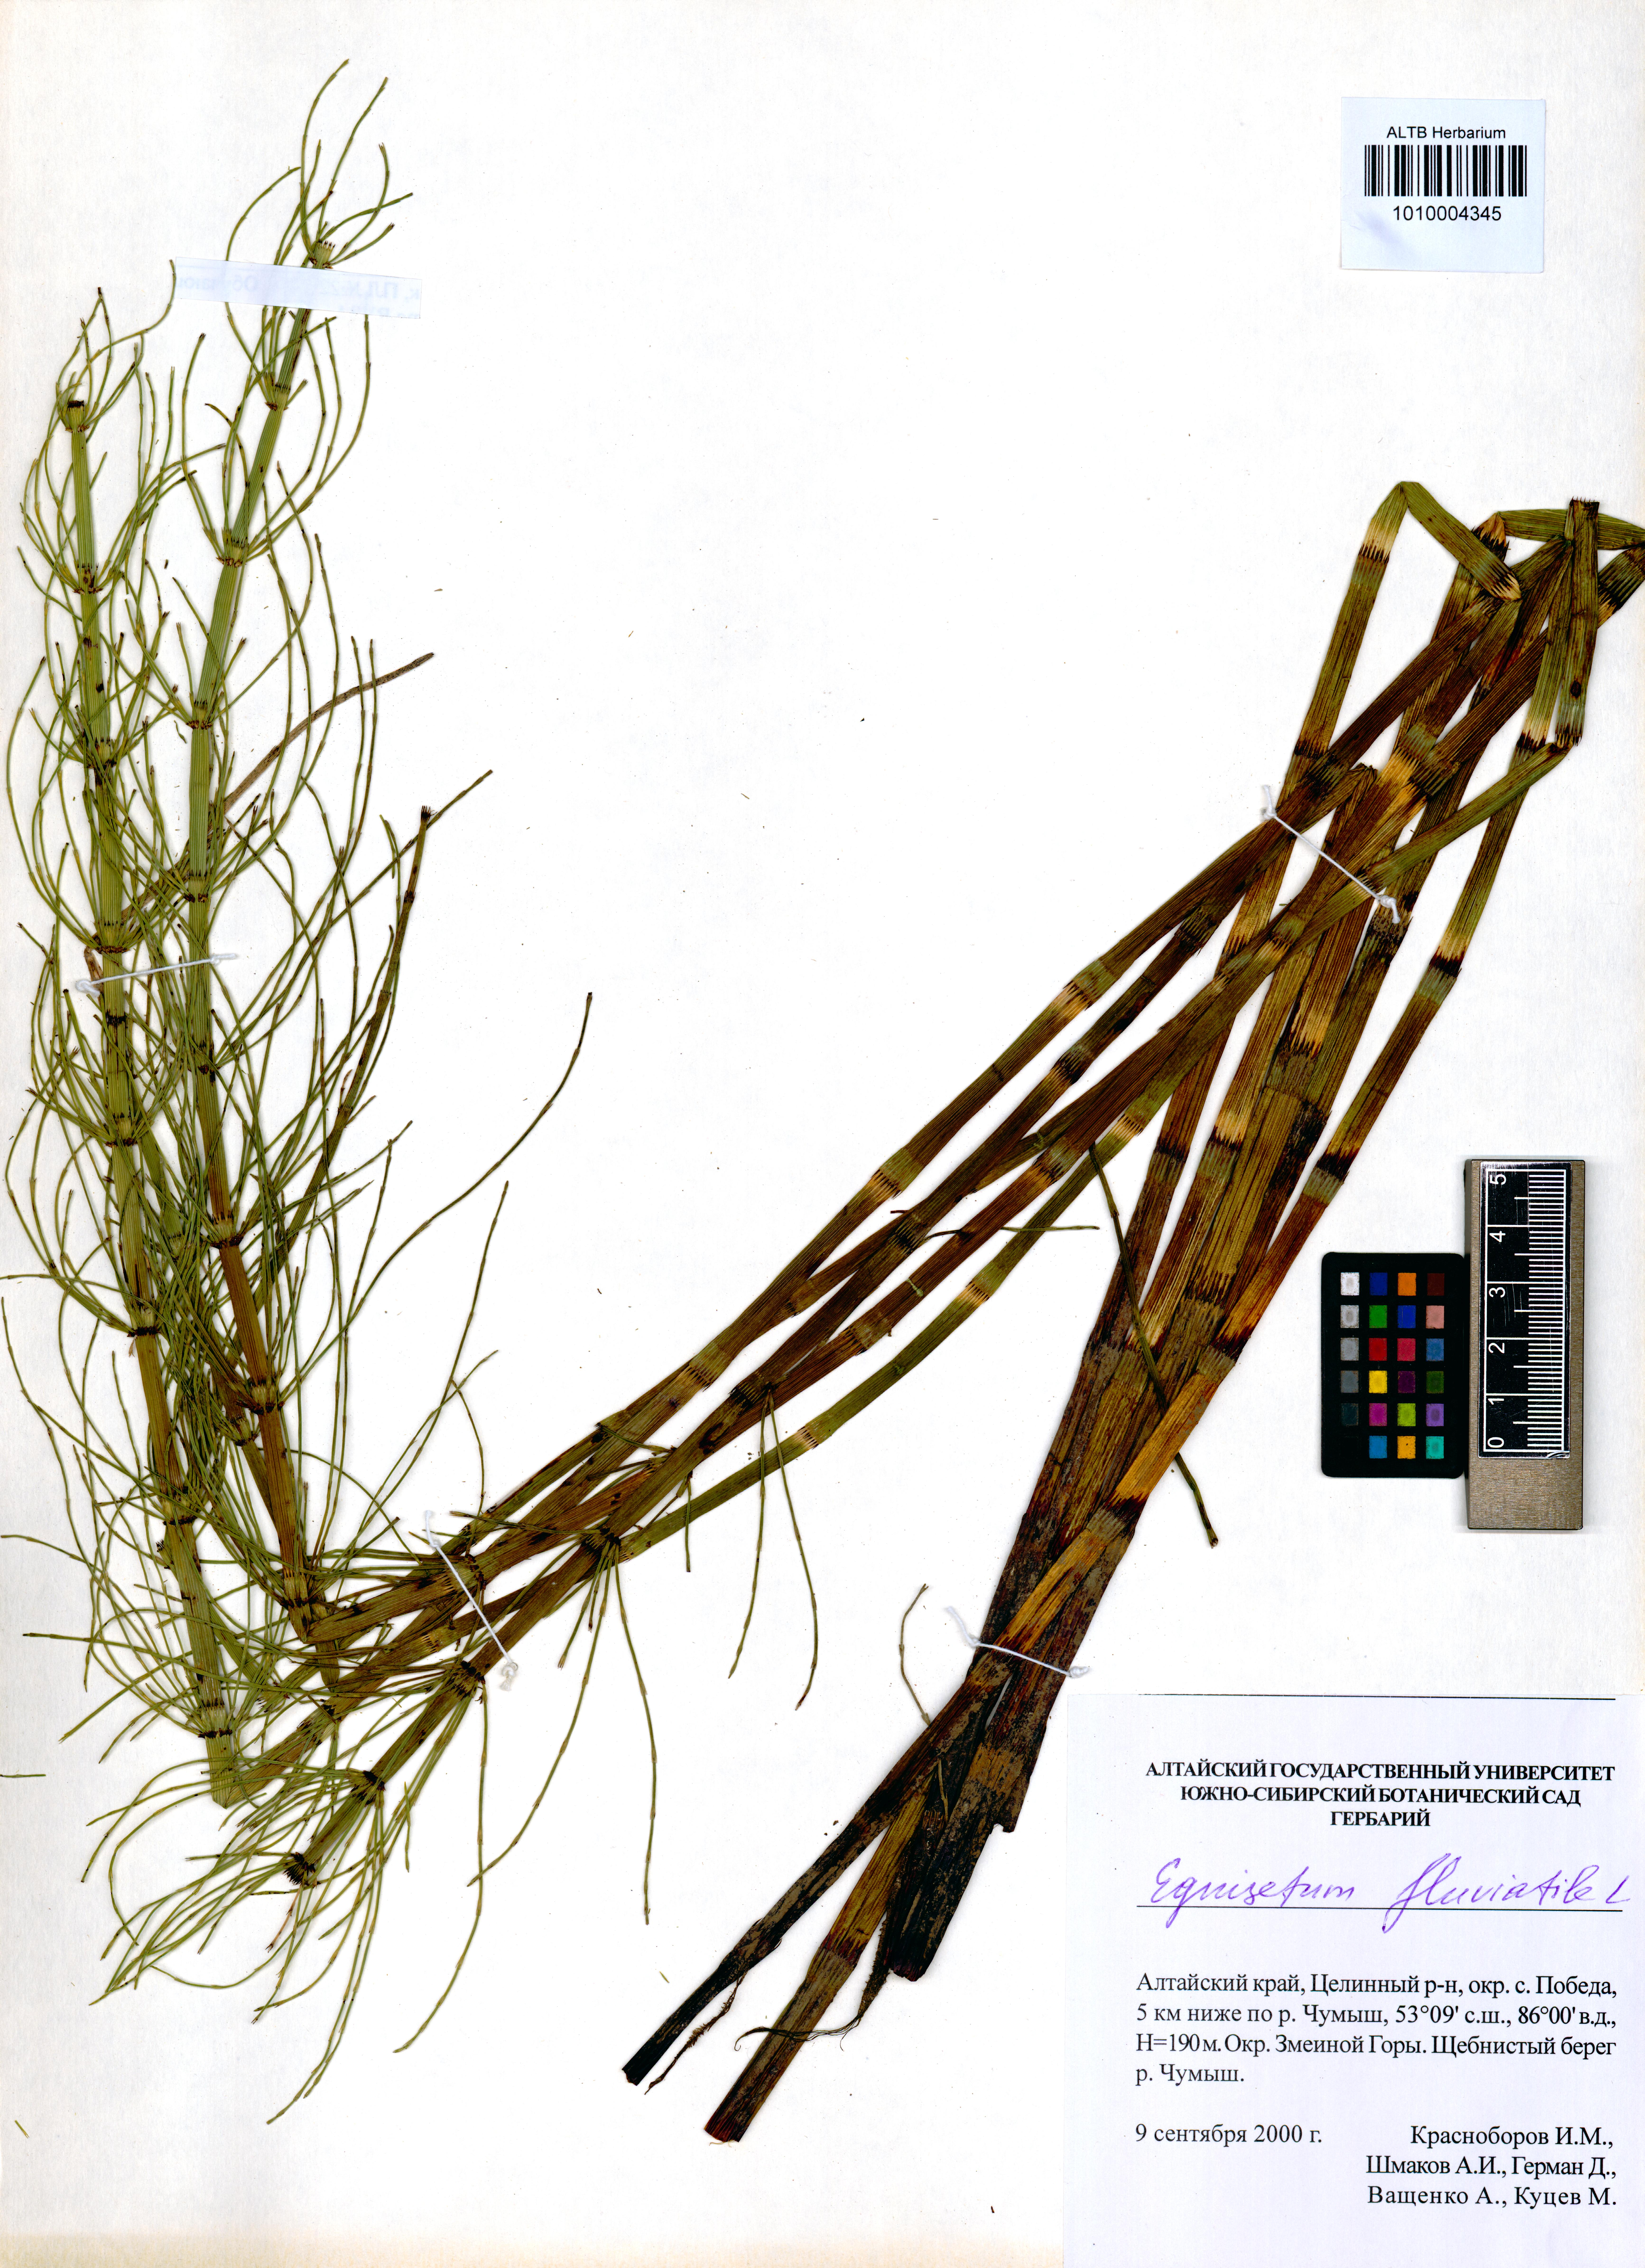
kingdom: Plantae
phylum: Tracheophyta
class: Polypodiopsida
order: Equisetales
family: Equisetaceae
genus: Equisetum
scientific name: Equisetum fluviatile
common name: Water horsetail
